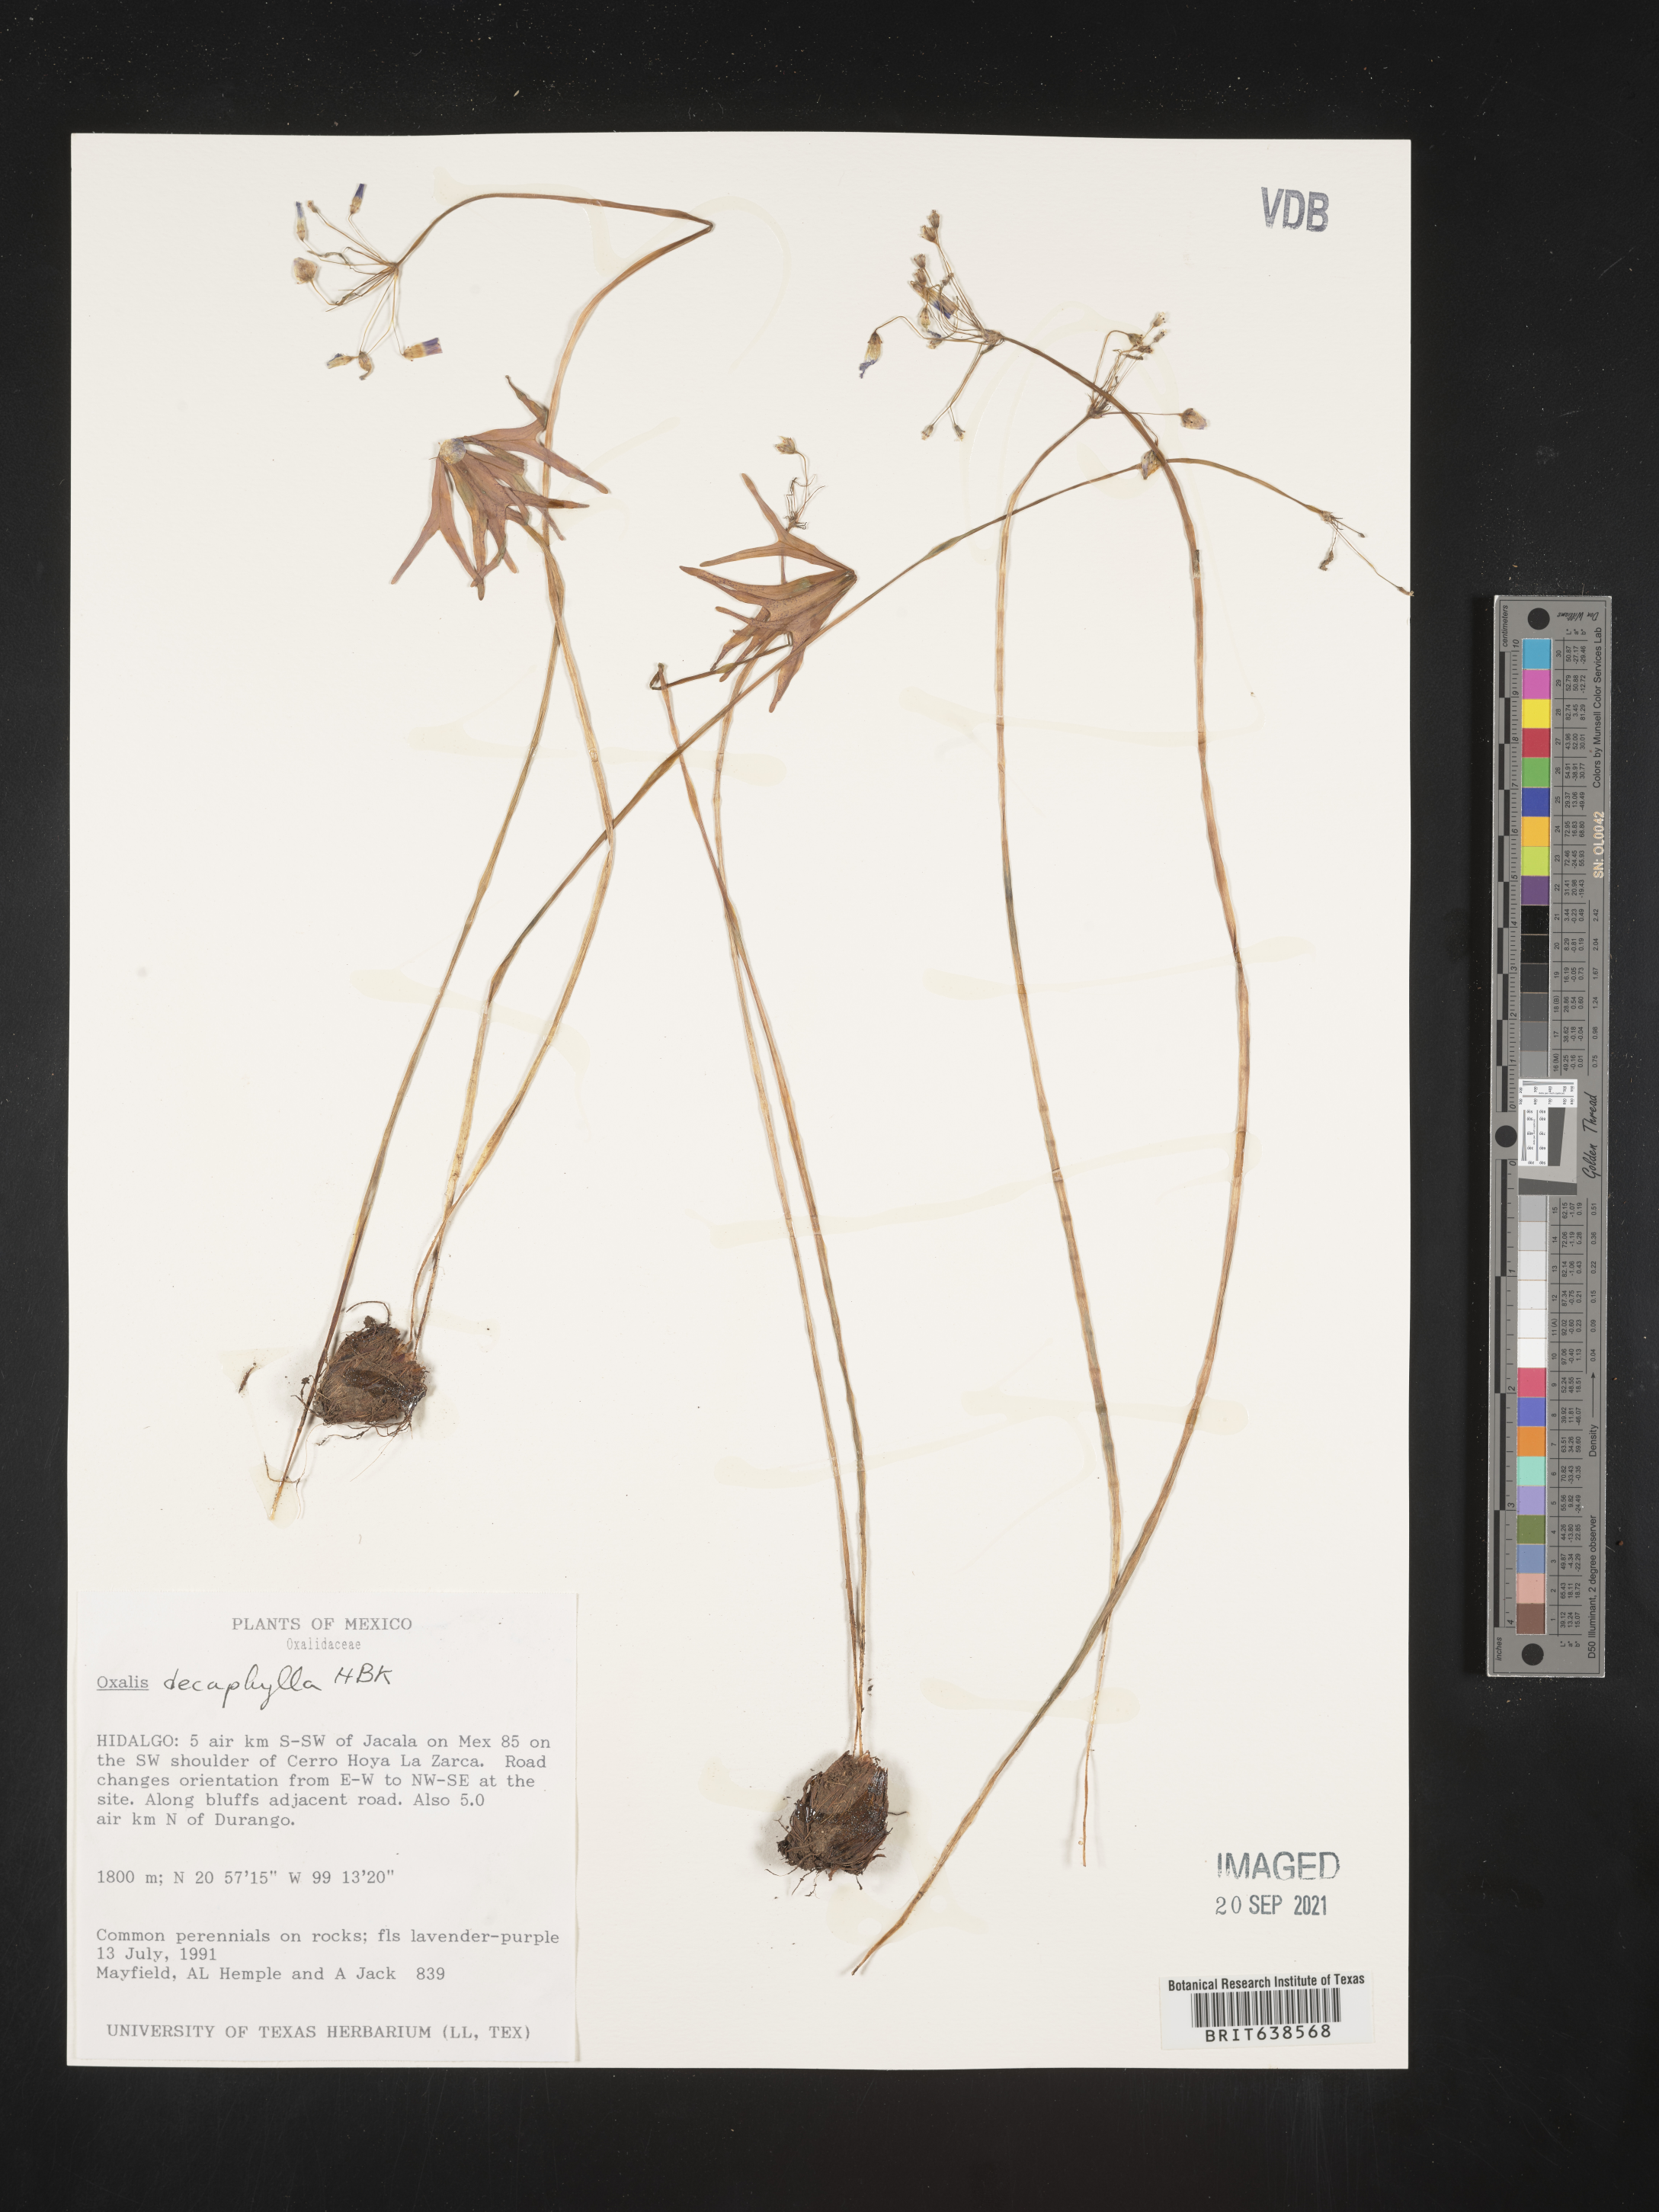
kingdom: Plantae
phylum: Tracheophyta
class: Magnoliopsida
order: Oxalidales
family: Oxalidaceae
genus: Oxalis
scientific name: Oxalis
